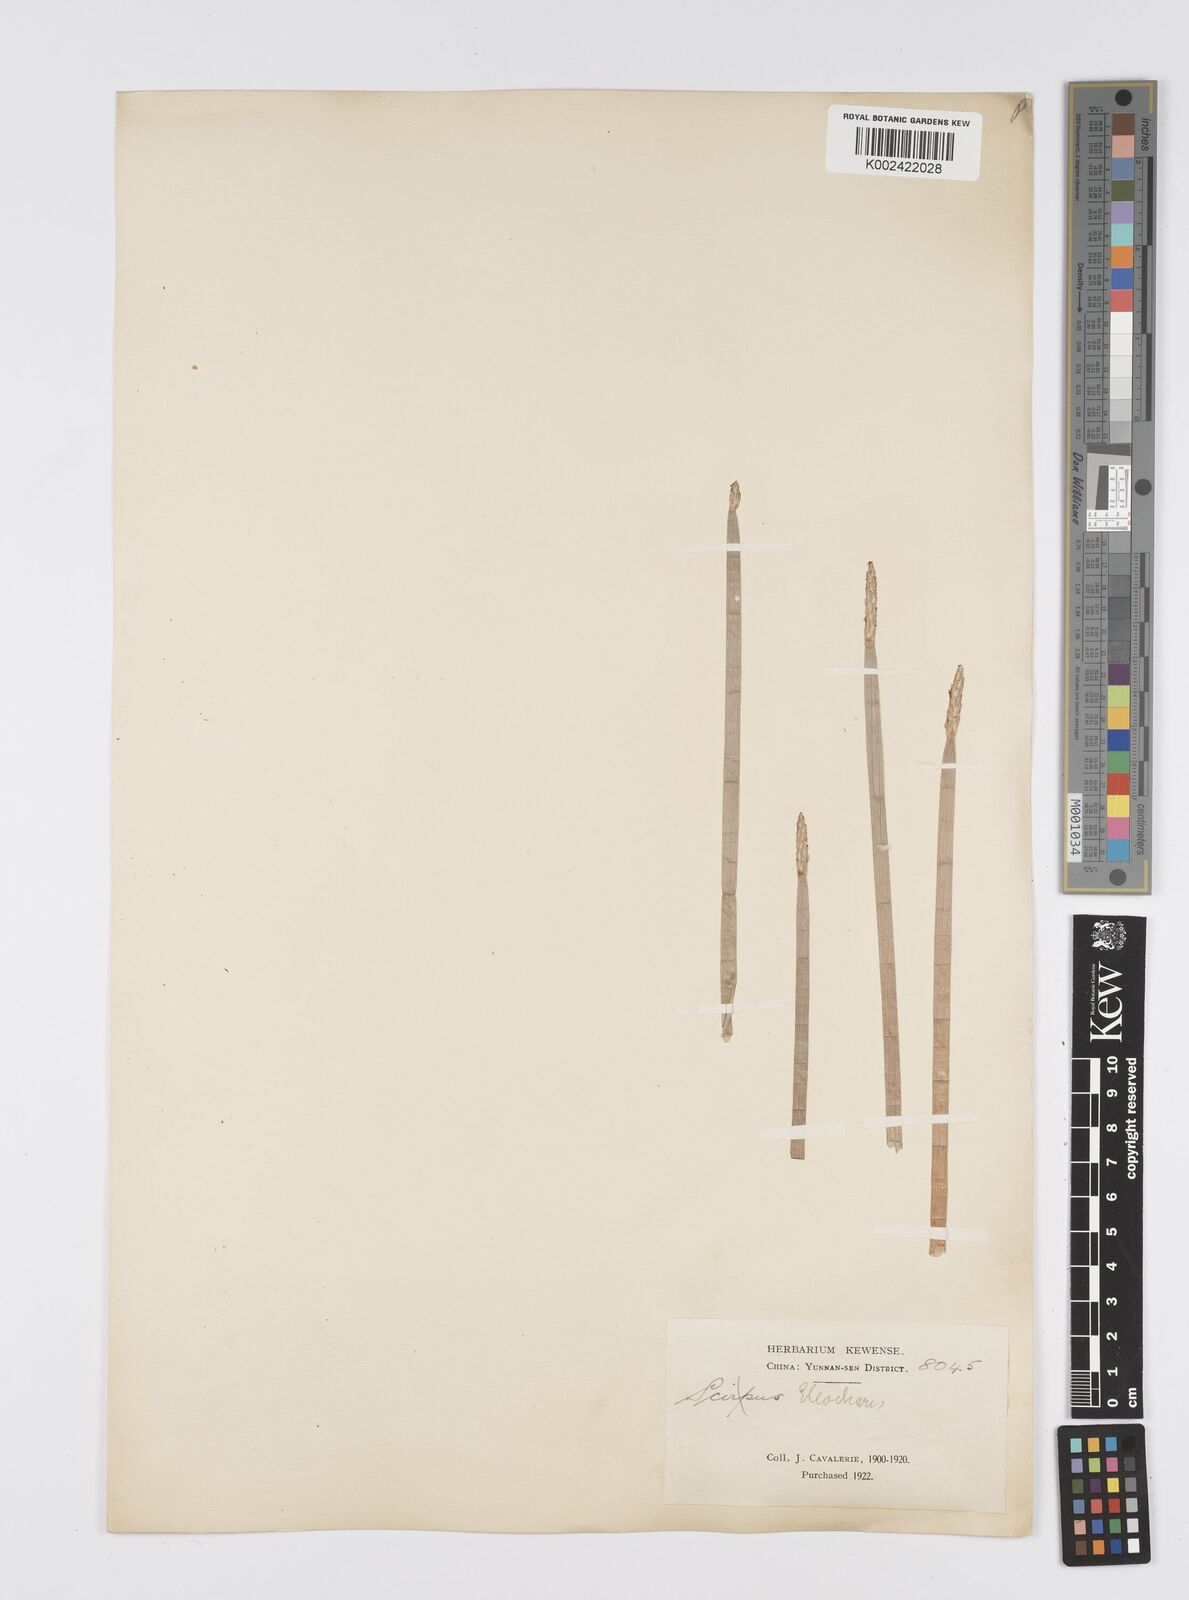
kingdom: Plantae
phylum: Tracheophyta
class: Liliopsida
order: Poales
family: Cyperaceae
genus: Eleocharis
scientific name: Eleocharis dulcis
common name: Chinese water chestnut
